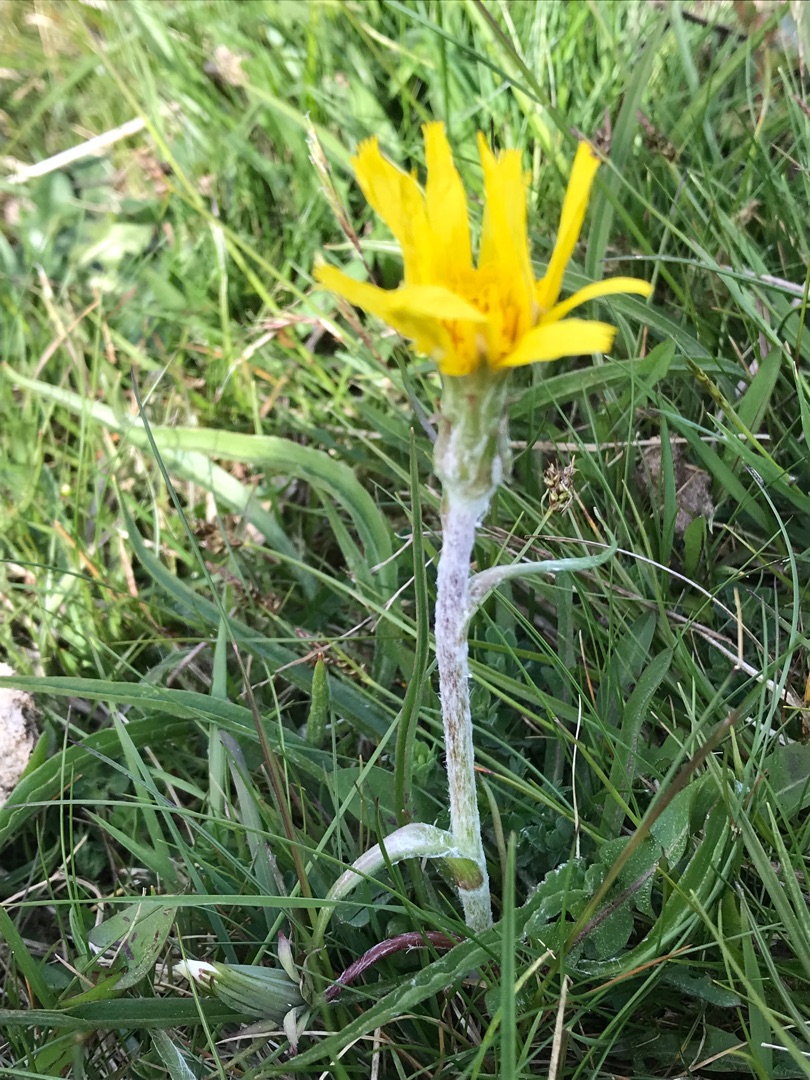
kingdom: Plantae
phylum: Tracheophyta
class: Magnoliopsida
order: Asterales
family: Asteraceae
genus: Scorzonera
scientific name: Scorzonera humilis
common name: Lav skorsoner
